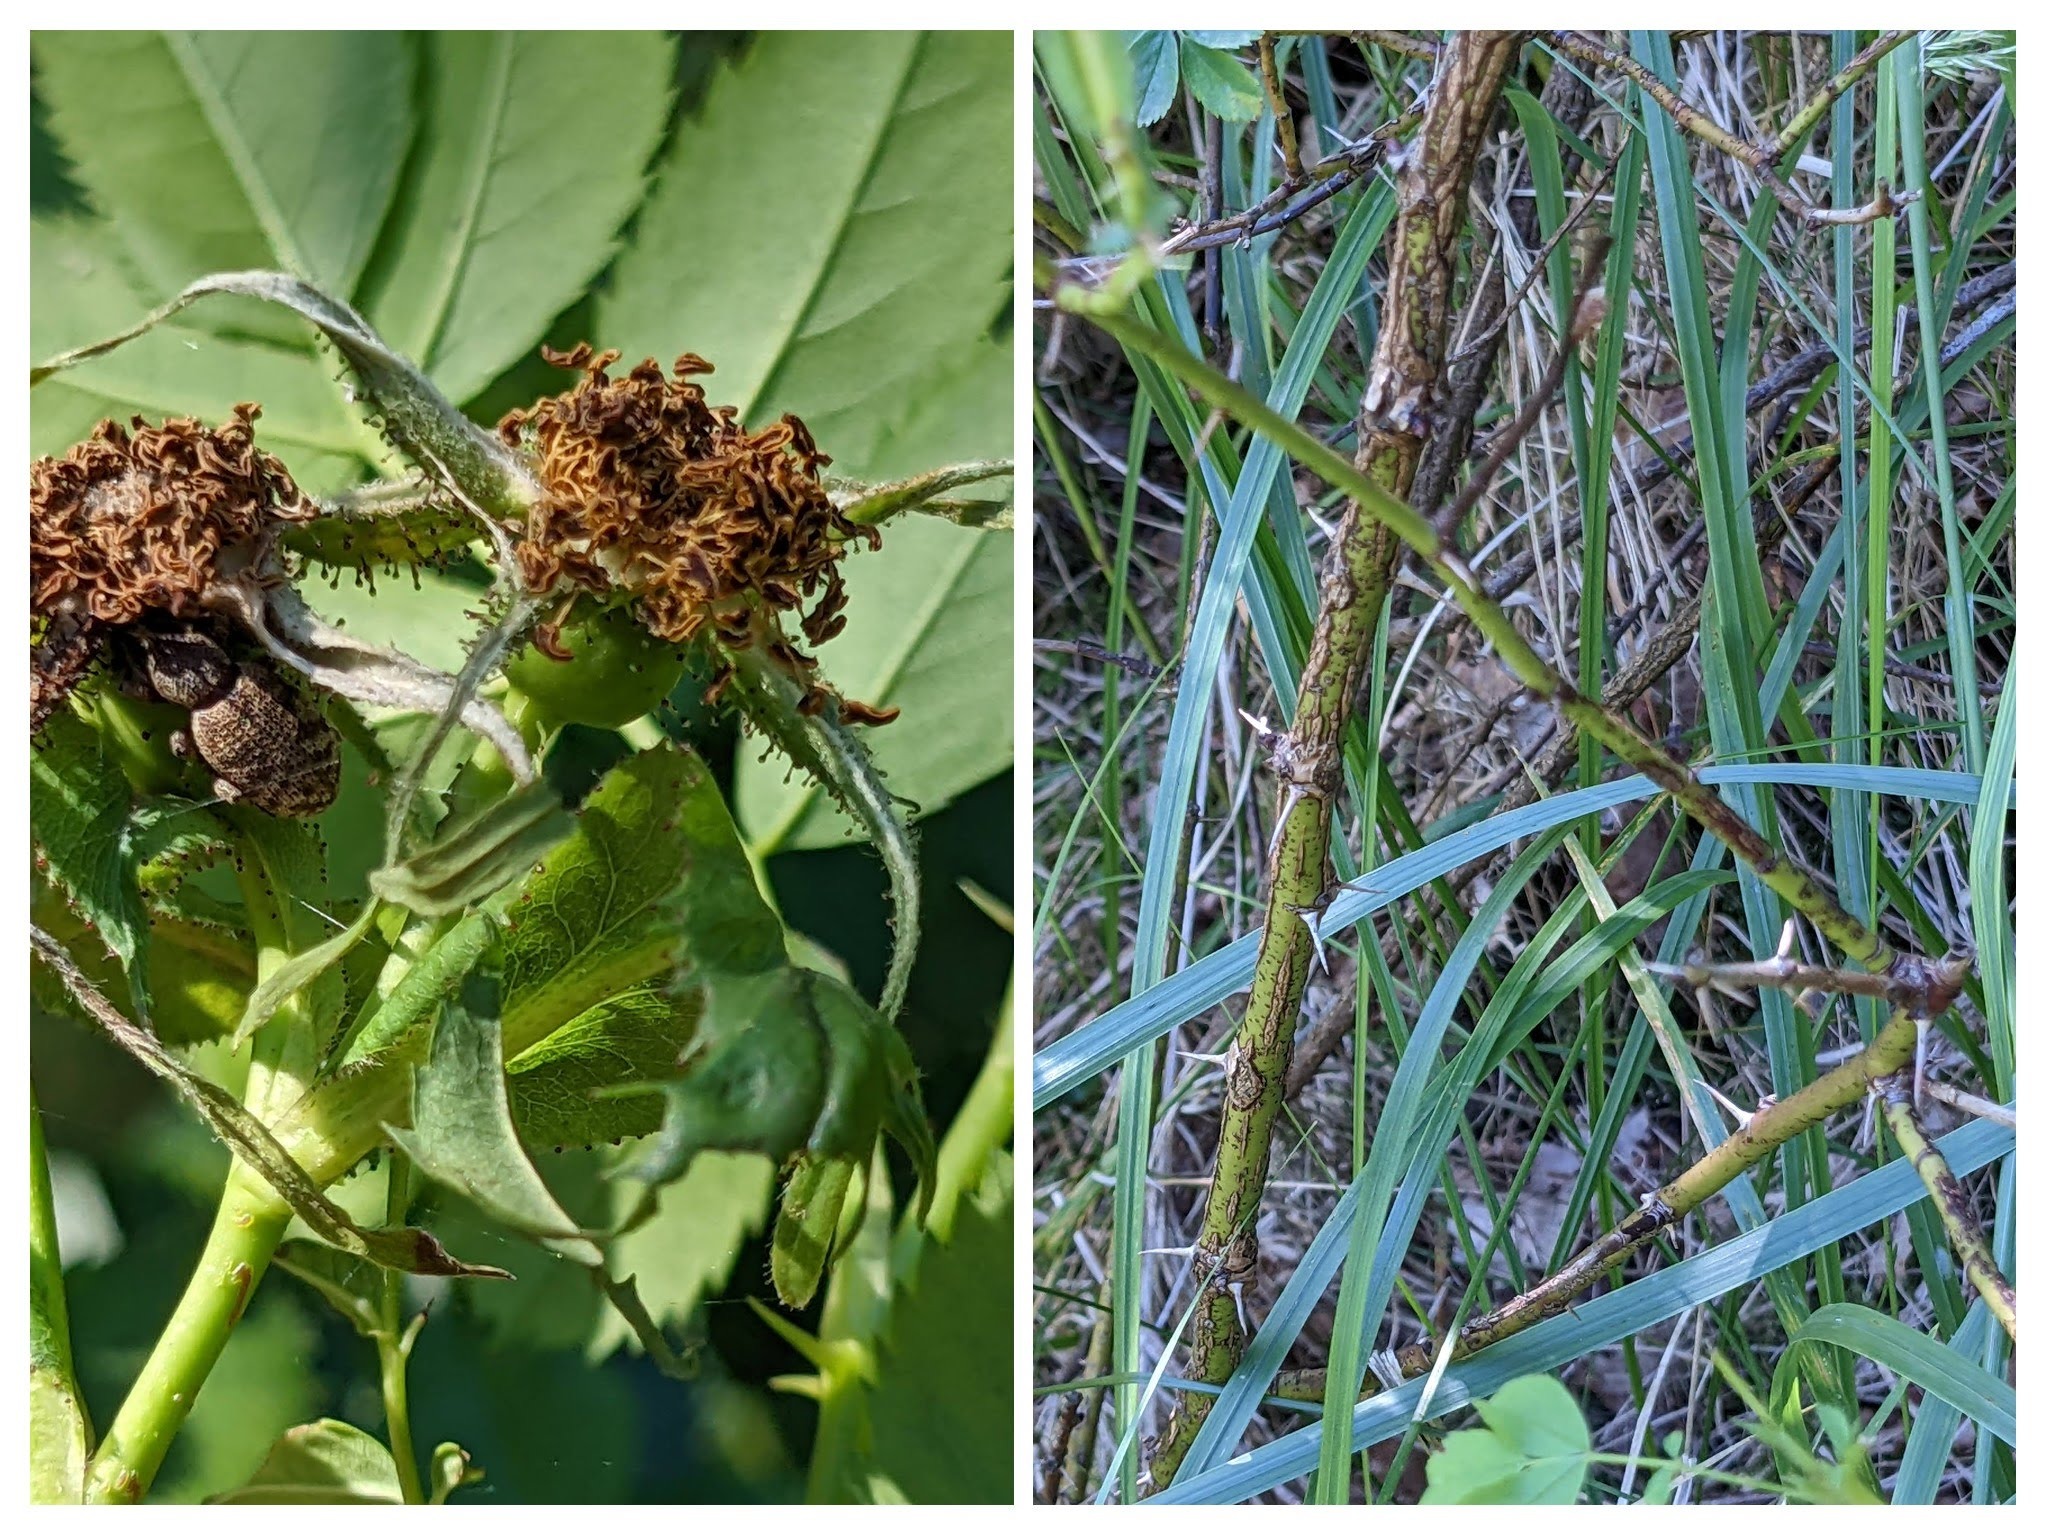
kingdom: Plantae
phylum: Tracheophyta
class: Magnoliopsida
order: Rosales
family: Rosaceae
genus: Rosa
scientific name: Rosa carolina
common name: Glansbladet rose
